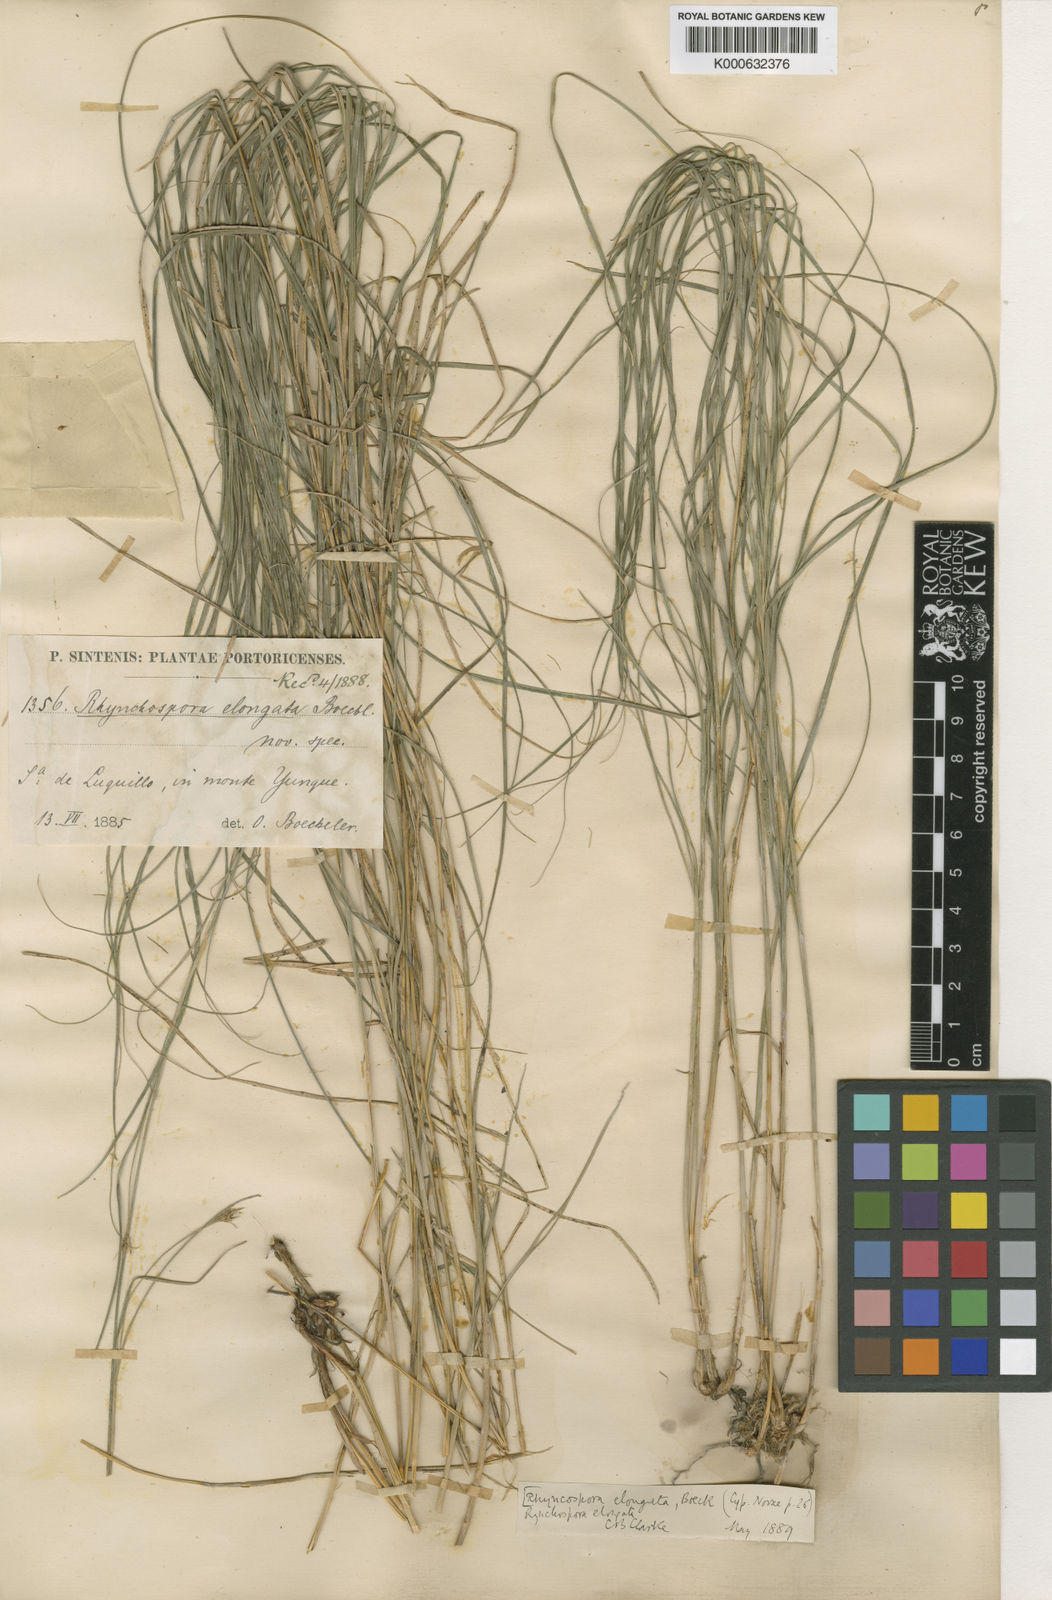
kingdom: Plantae
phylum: Tracheophyta
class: Liliopsida
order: Poales
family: Cyperaceae
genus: Rhynchospora
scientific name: Rhynchospora biflora
